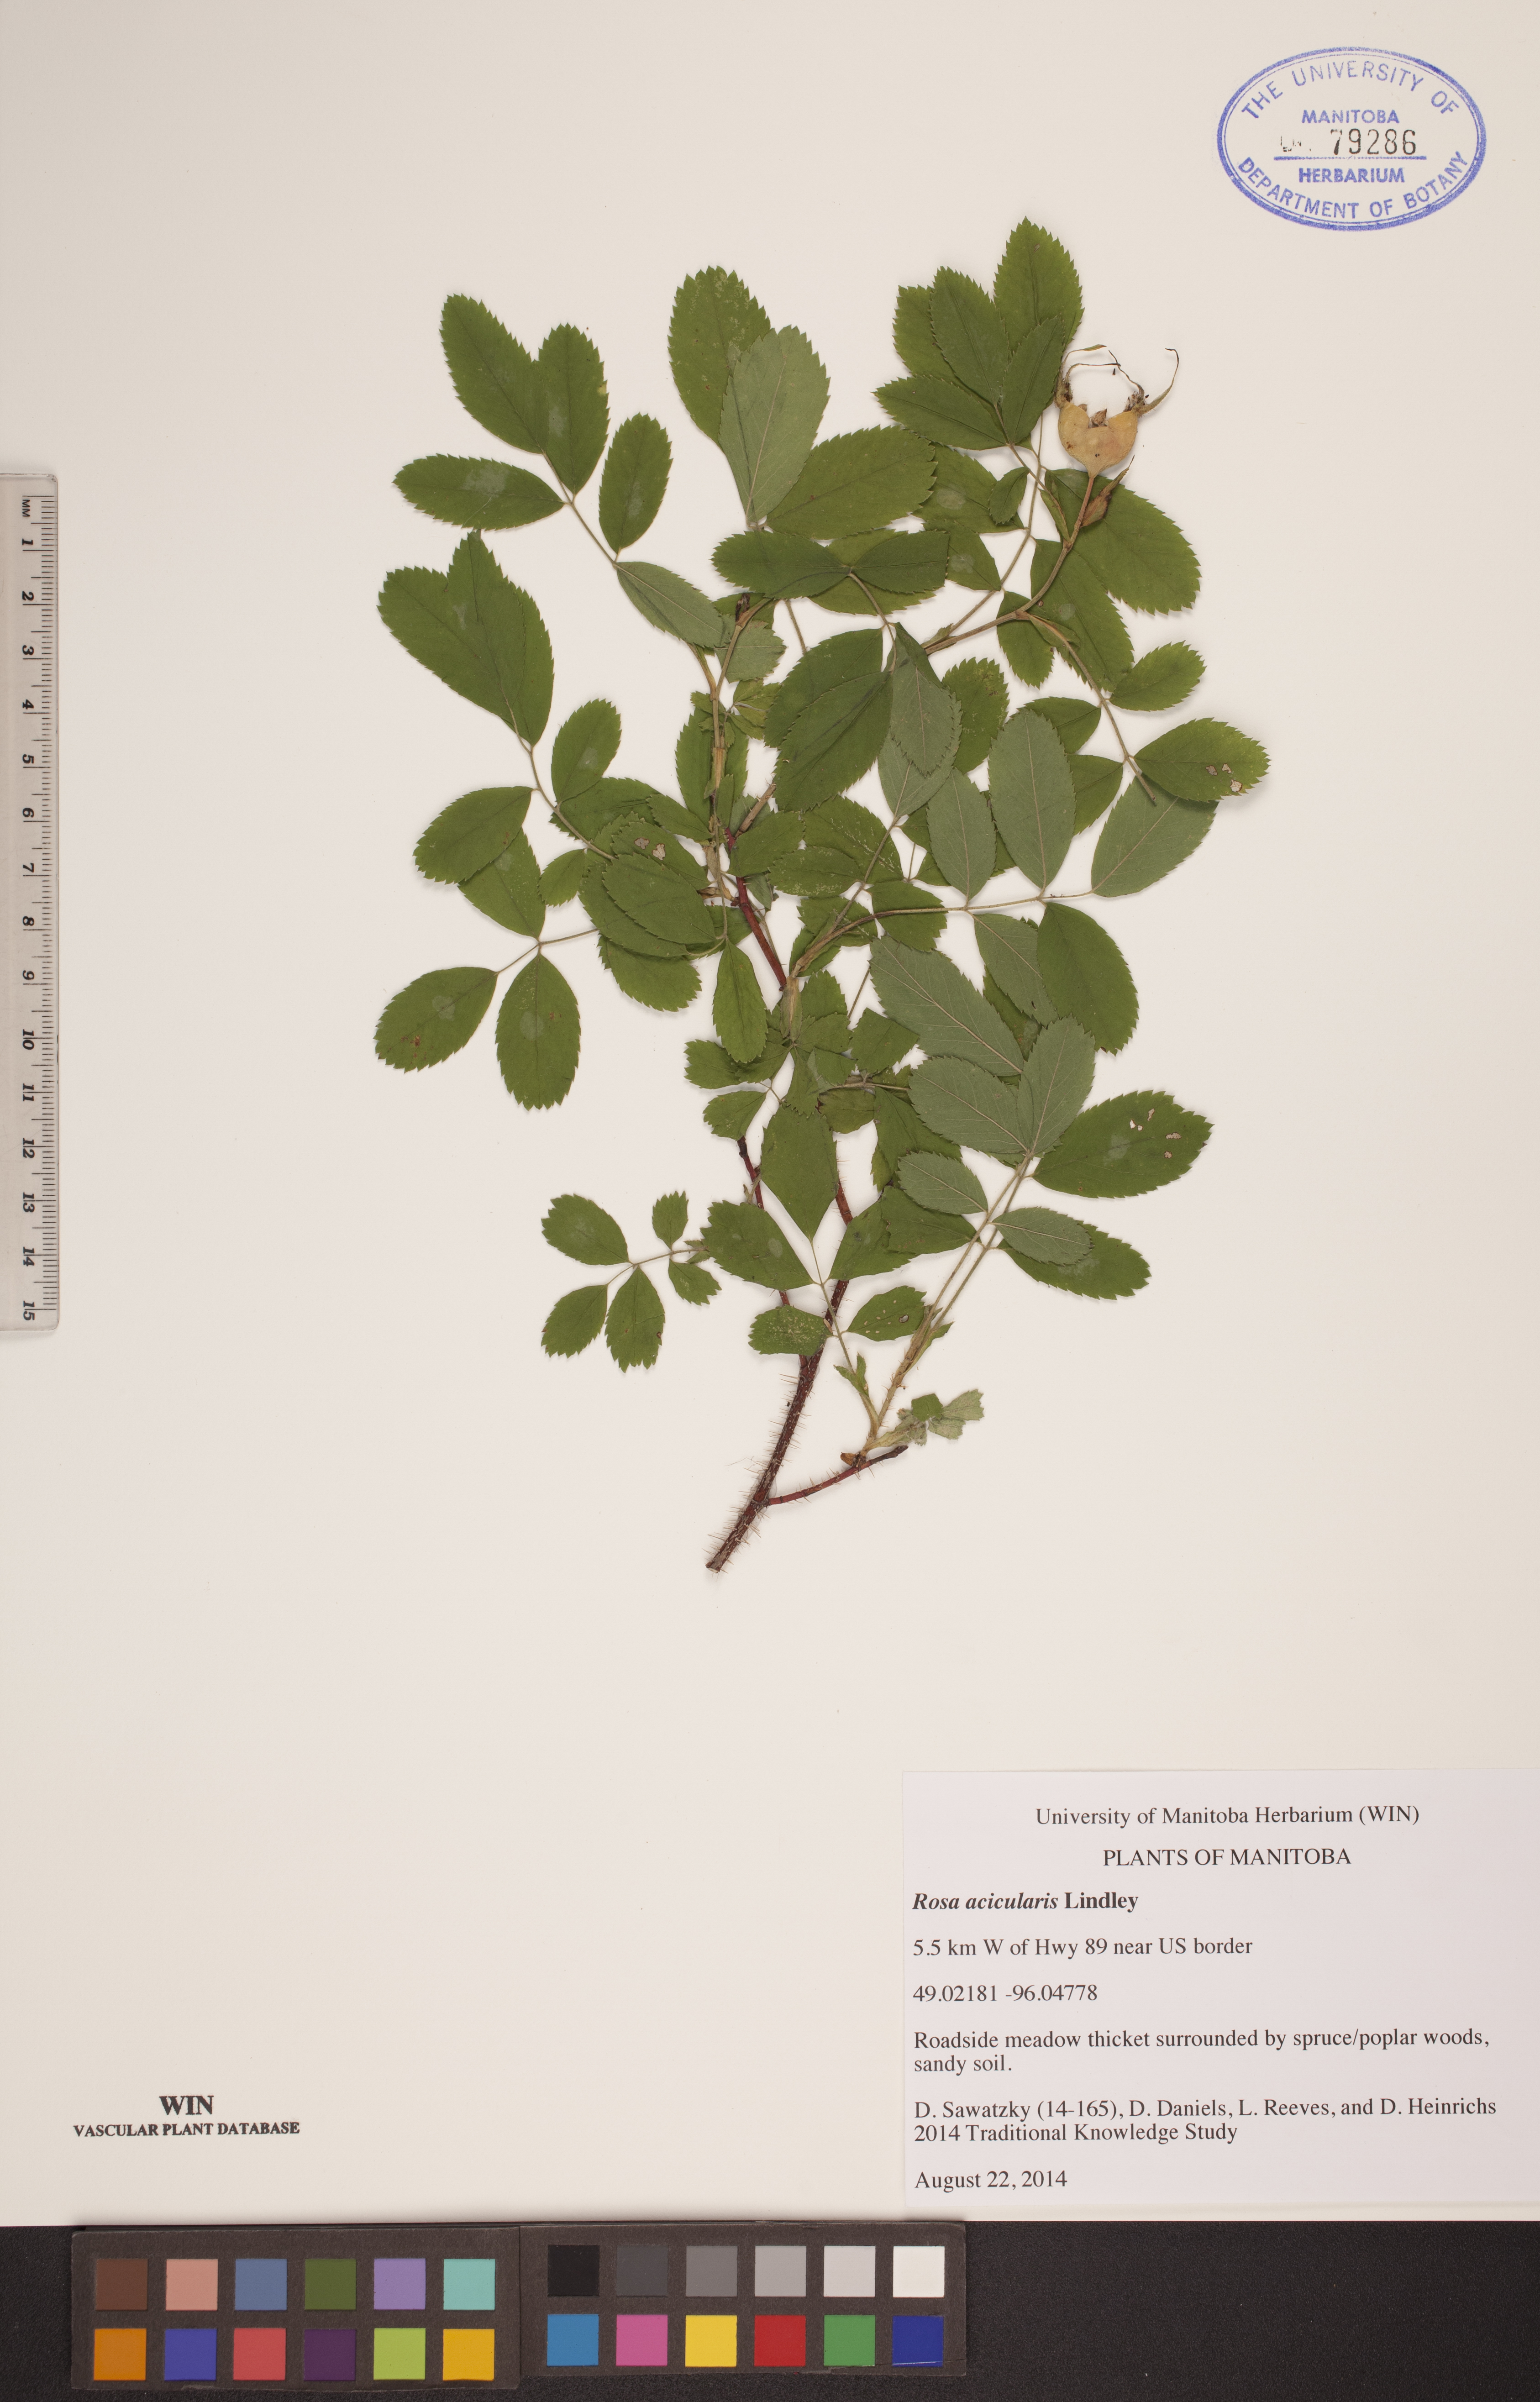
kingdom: Plantae
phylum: Tracheophyta
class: Magnoliopsida
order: Rosales
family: Rosaceae
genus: Rosa
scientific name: Rosa acicularis
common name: Prickly rose
